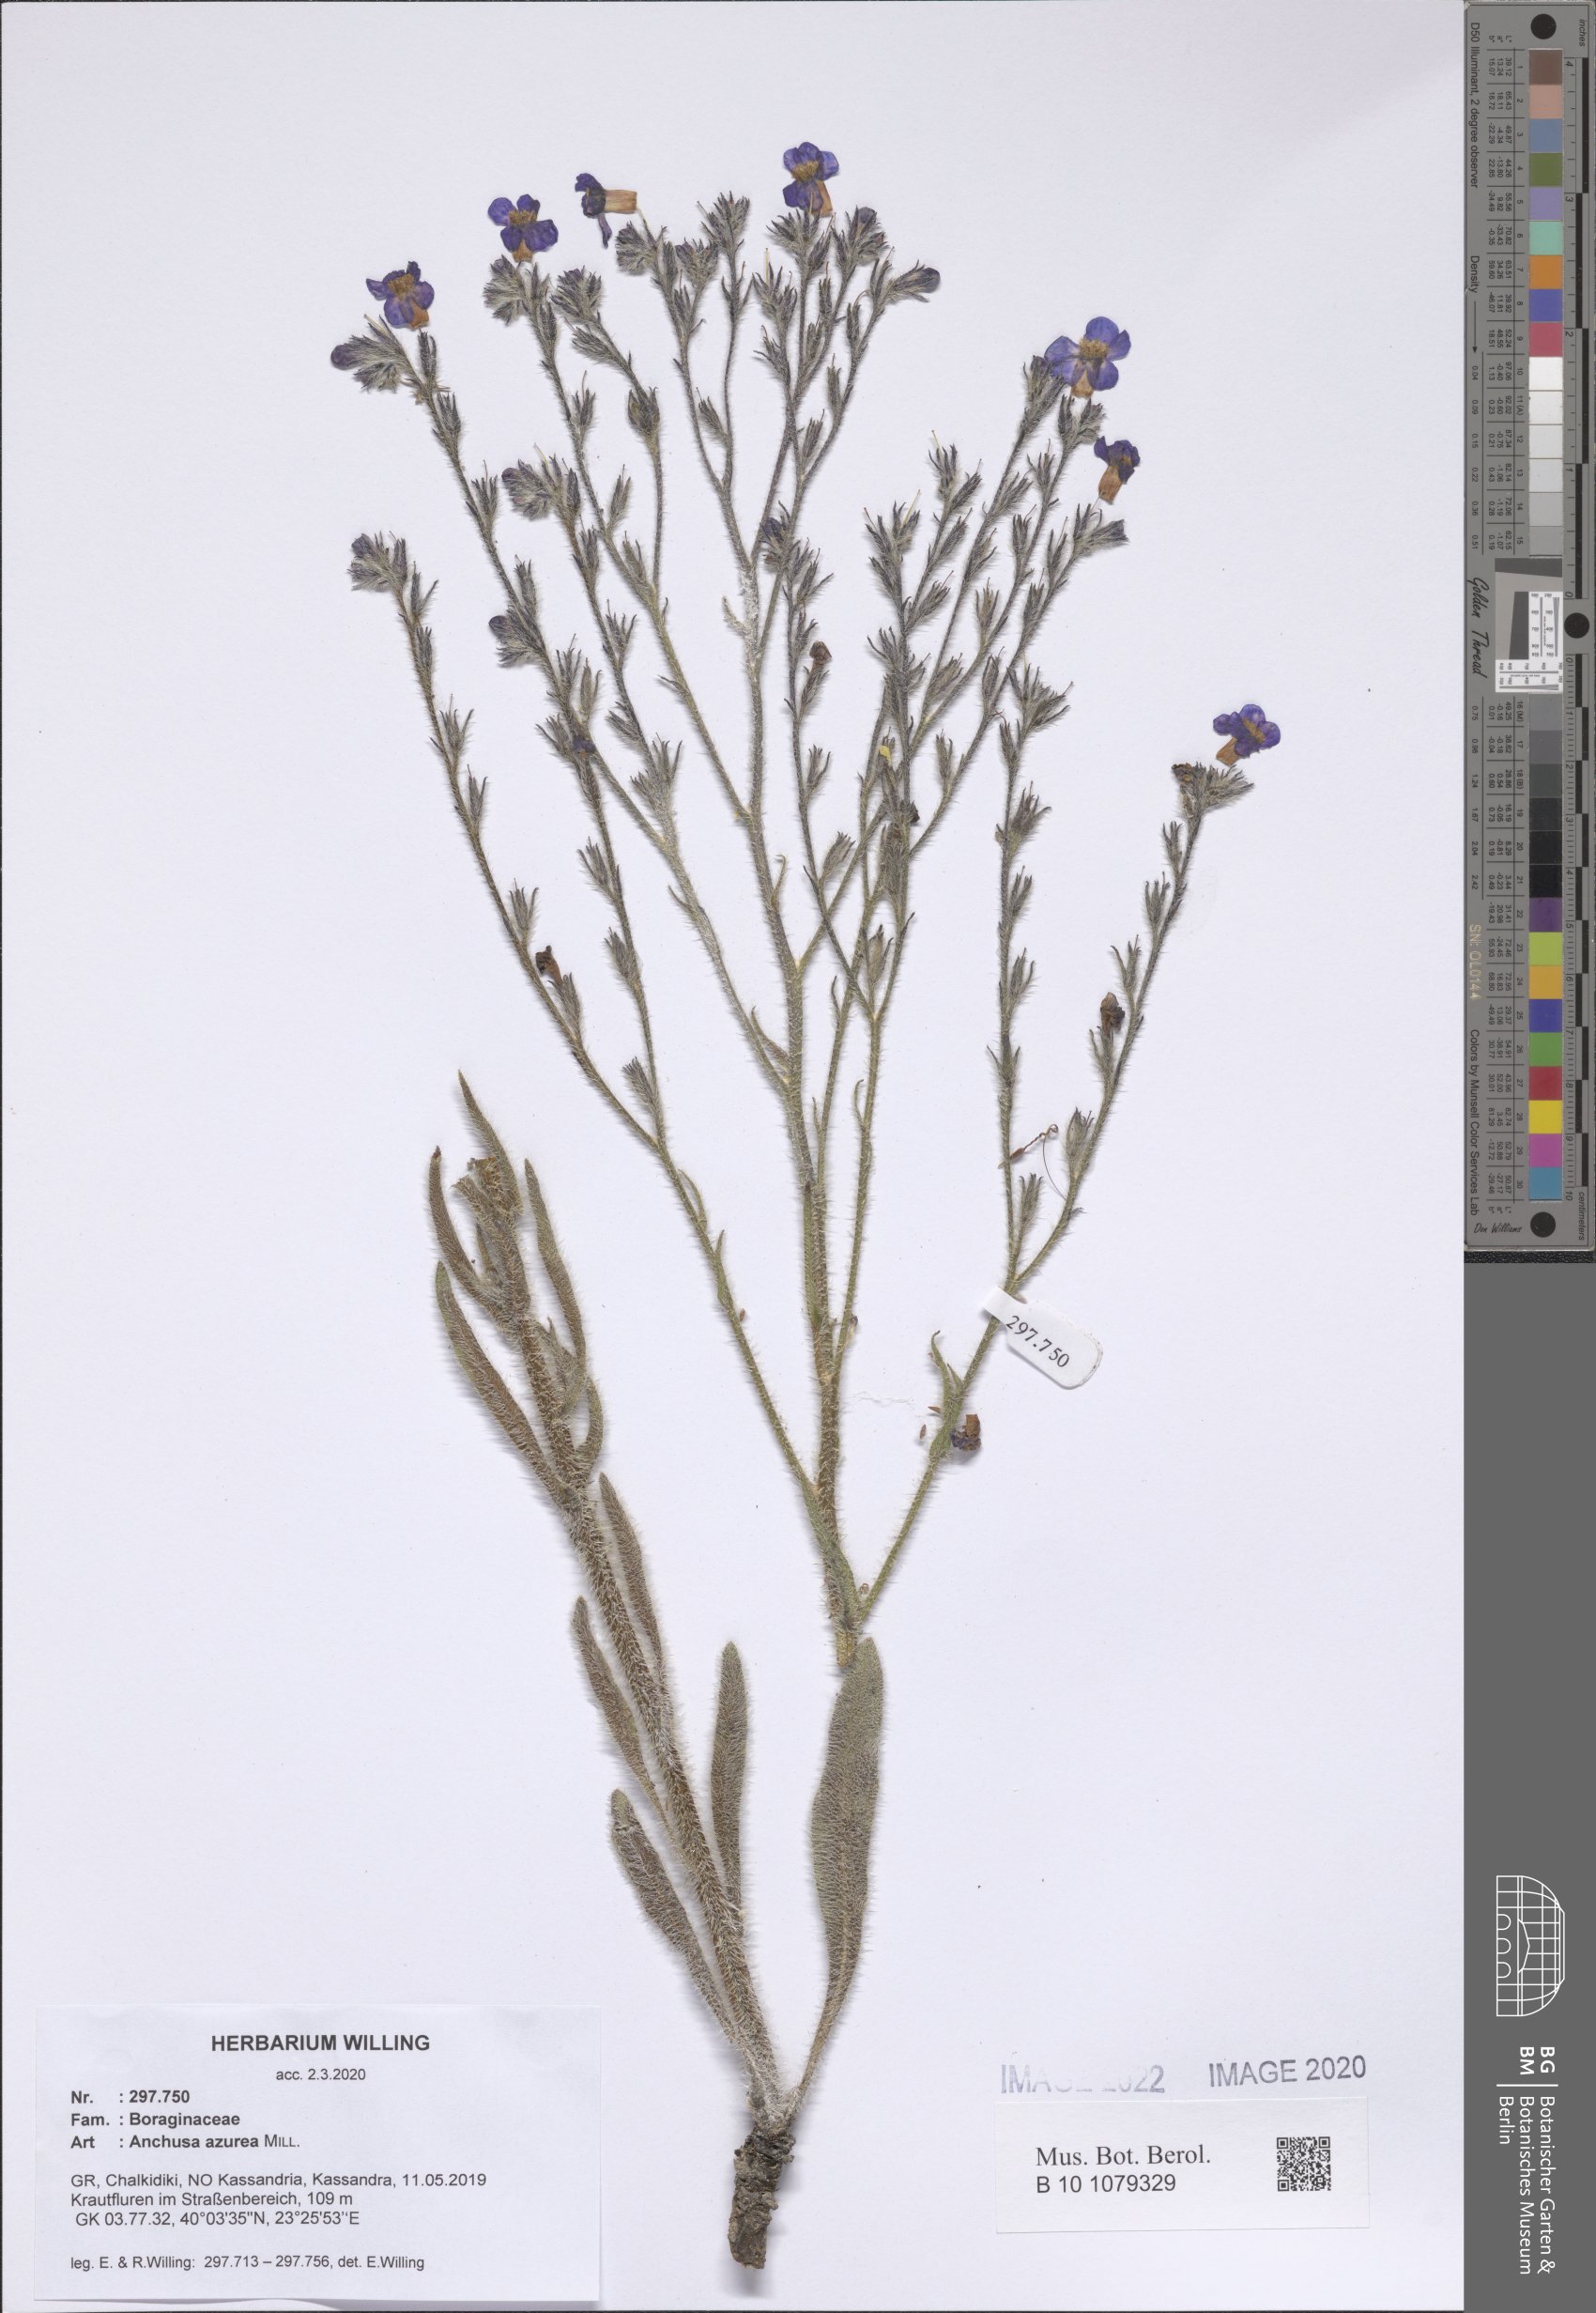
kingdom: Plantae
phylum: Tracheophyta
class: Magnoliopsida
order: Boraginales
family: Boraginaceae
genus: Anchusa
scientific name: Anchusa azurea
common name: Garden anchusa
